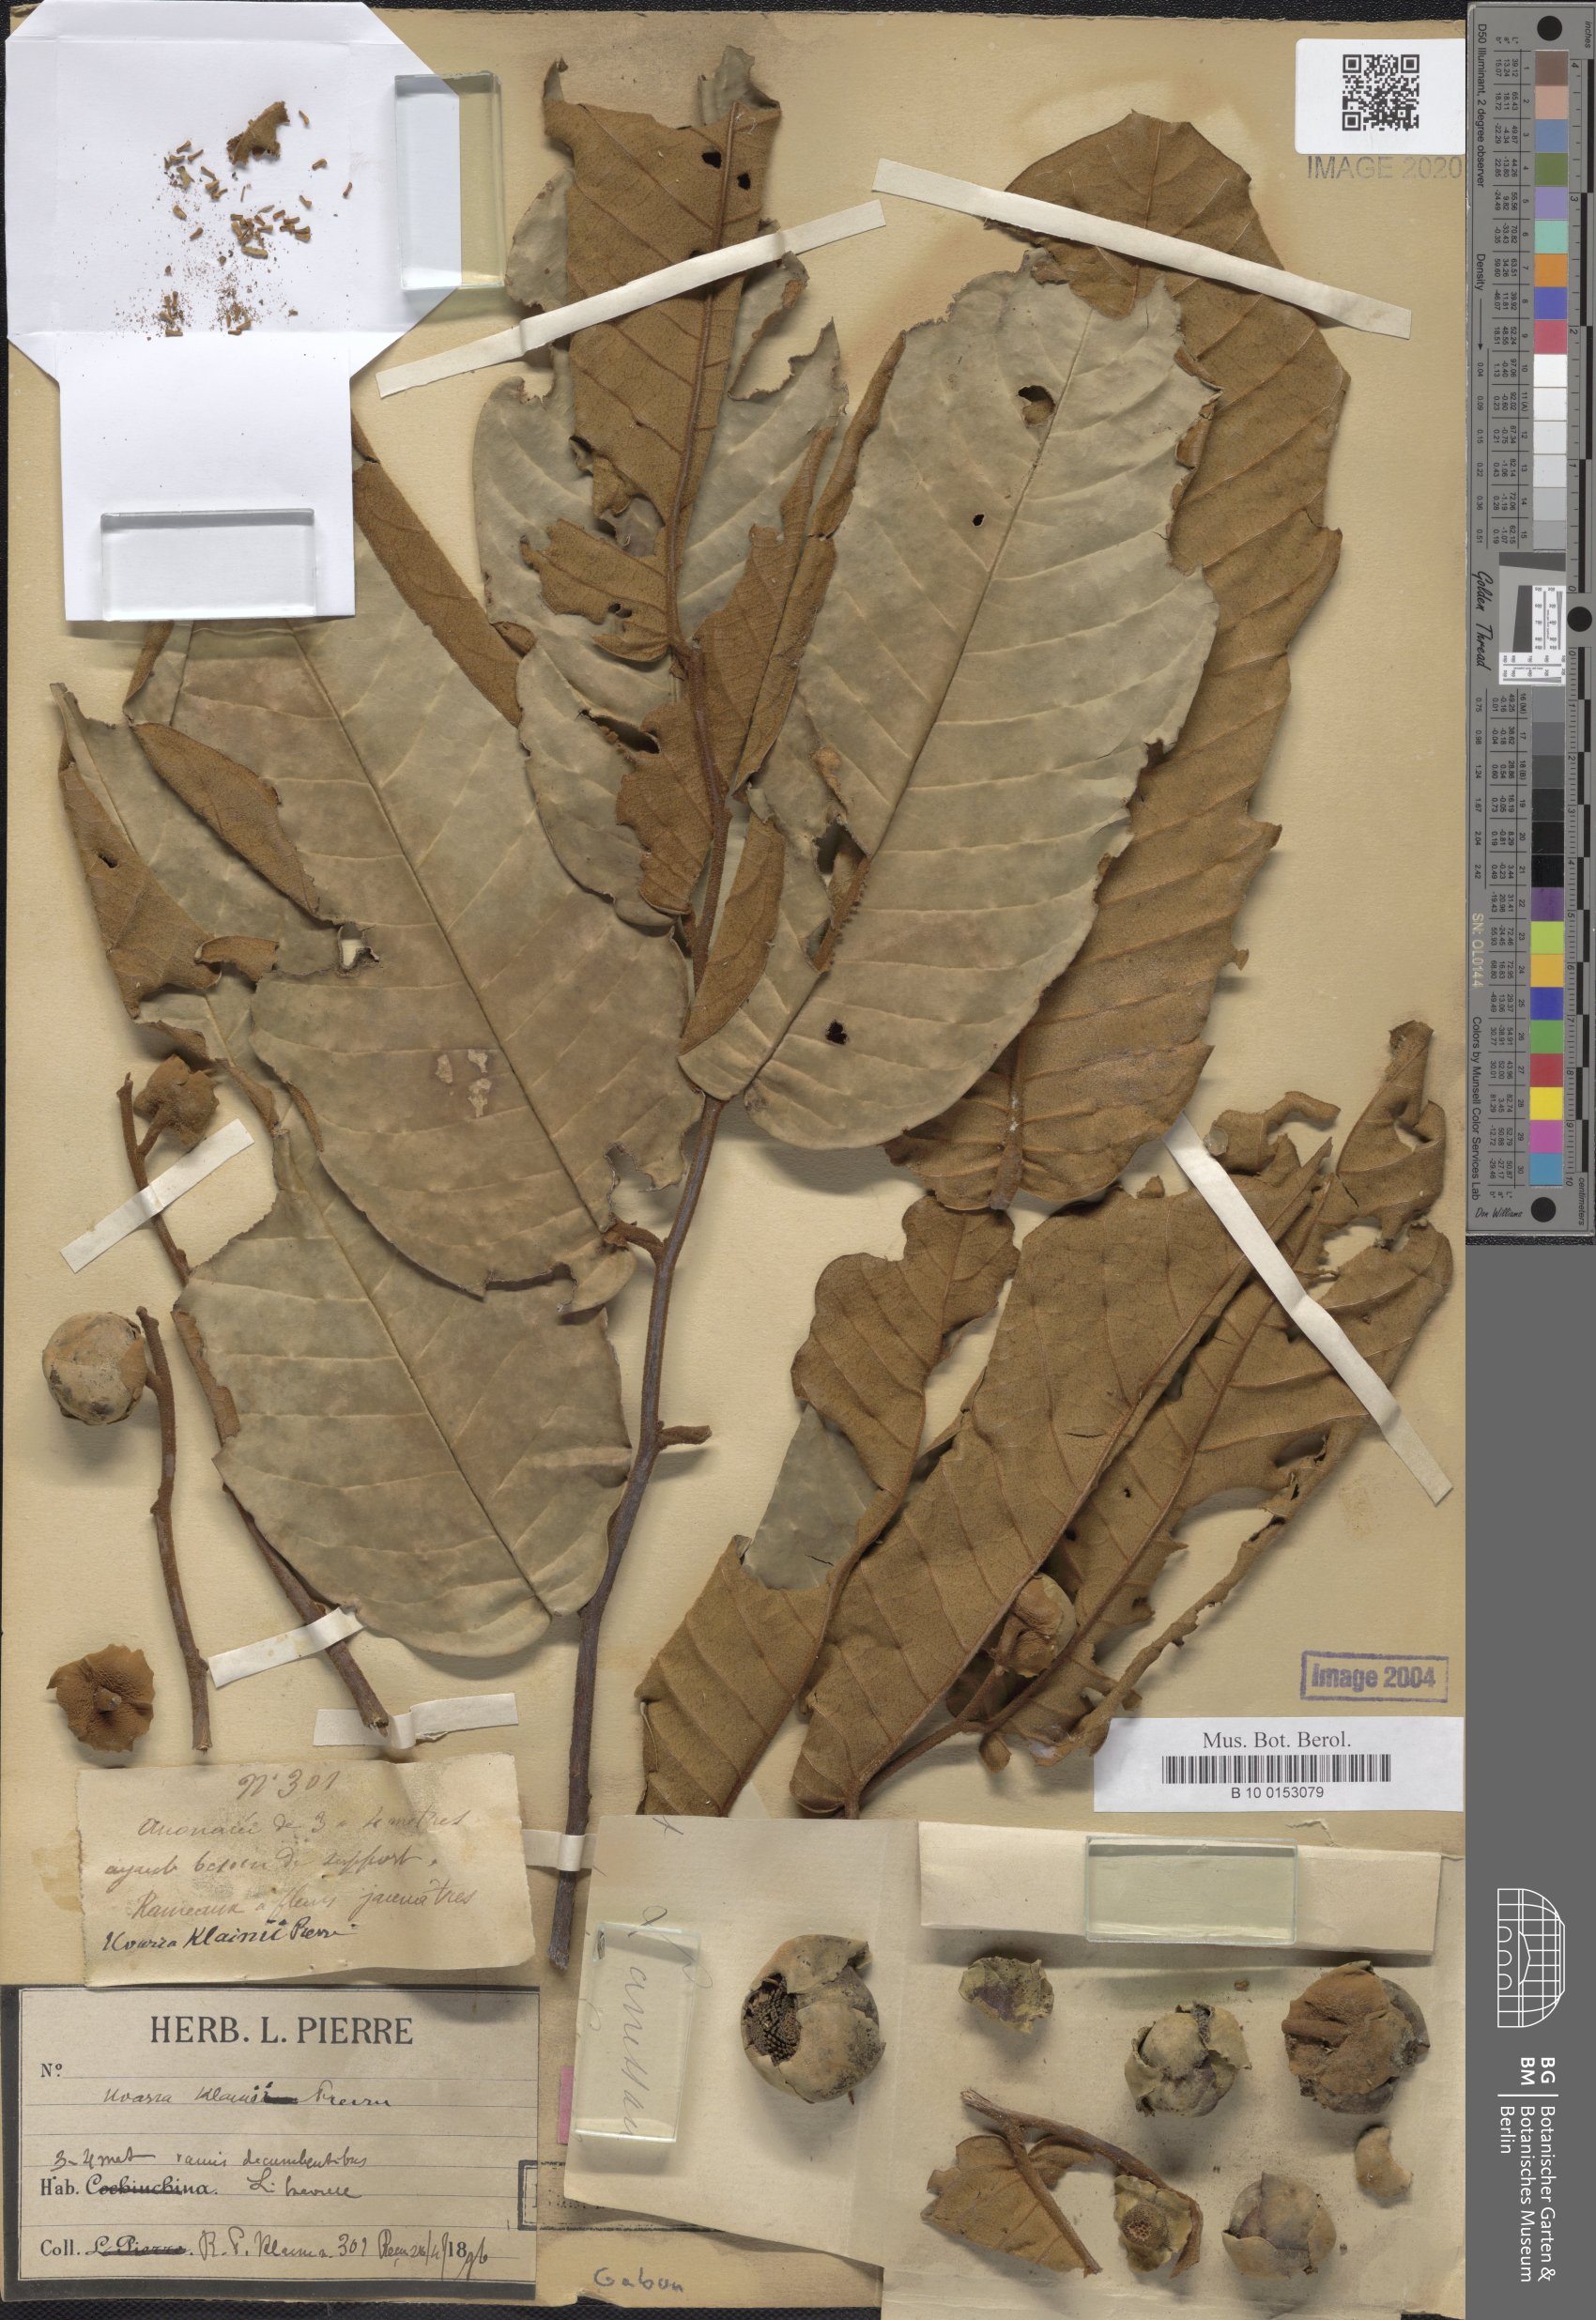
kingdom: Plantae
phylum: Tracheophyta
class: Magnoliopsida
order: Magnoliales
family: Annonaceae
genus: Uvaria
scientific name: Uvaria klainei
